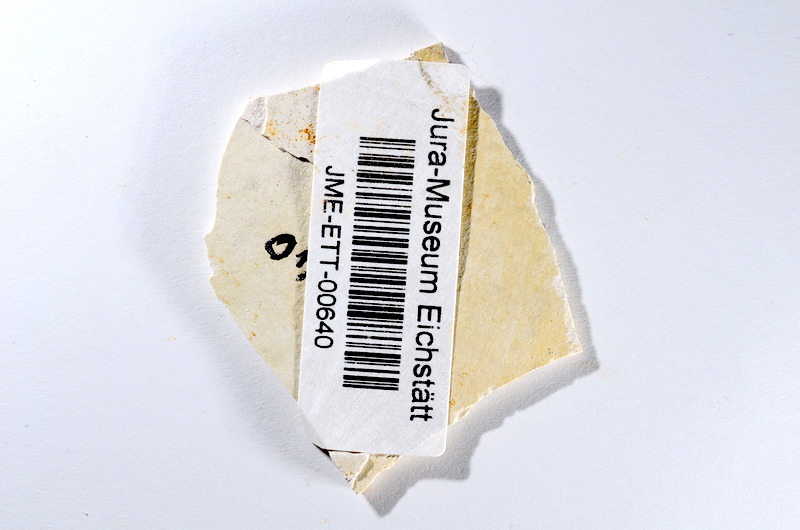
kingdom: Animalia
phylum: Chordata
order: Salmoniformes
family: Orthogonikleithridae
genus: Orthogonikleithrus
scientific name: Orthogonikleithrus hoelli
